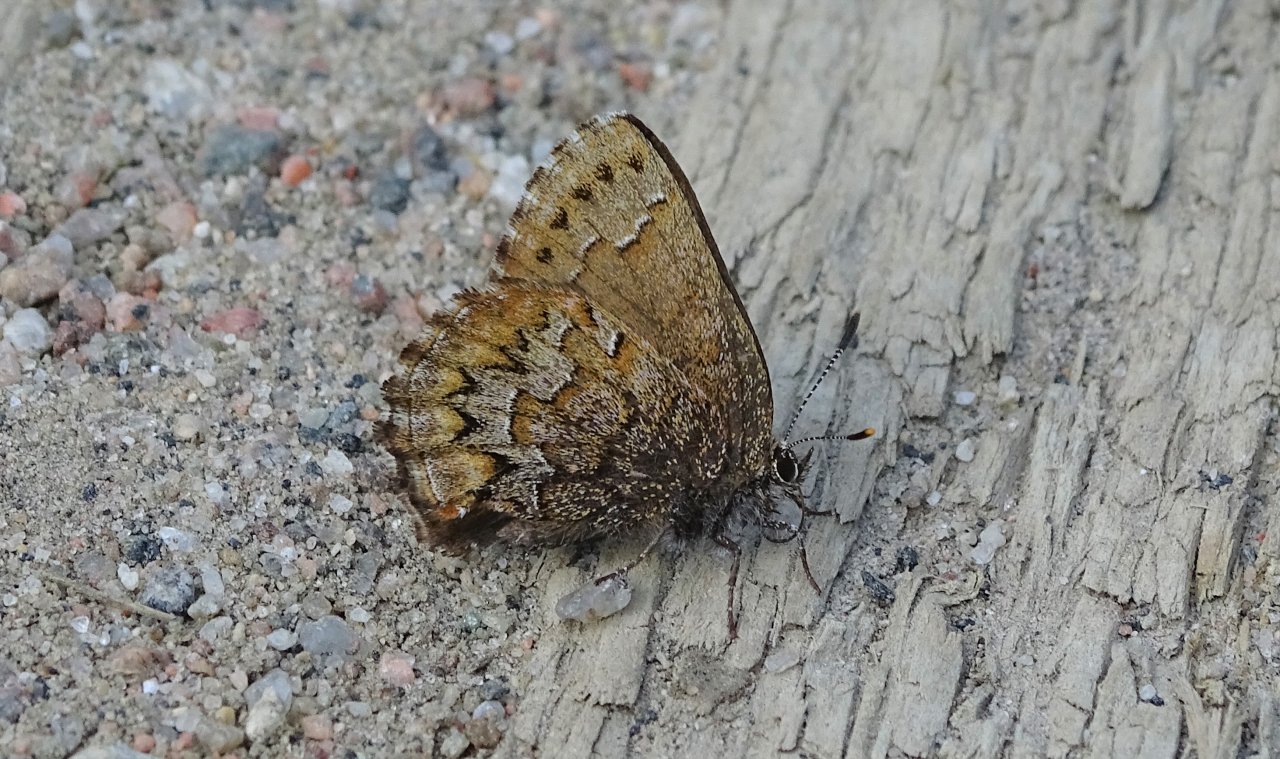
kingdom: Animalia
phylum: Arthropoda
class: Insecta
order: Lepidoptera
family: Lycaenidae
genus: Incisalia
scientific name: Incisalia niphon
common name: Eastern Pine Elfin
